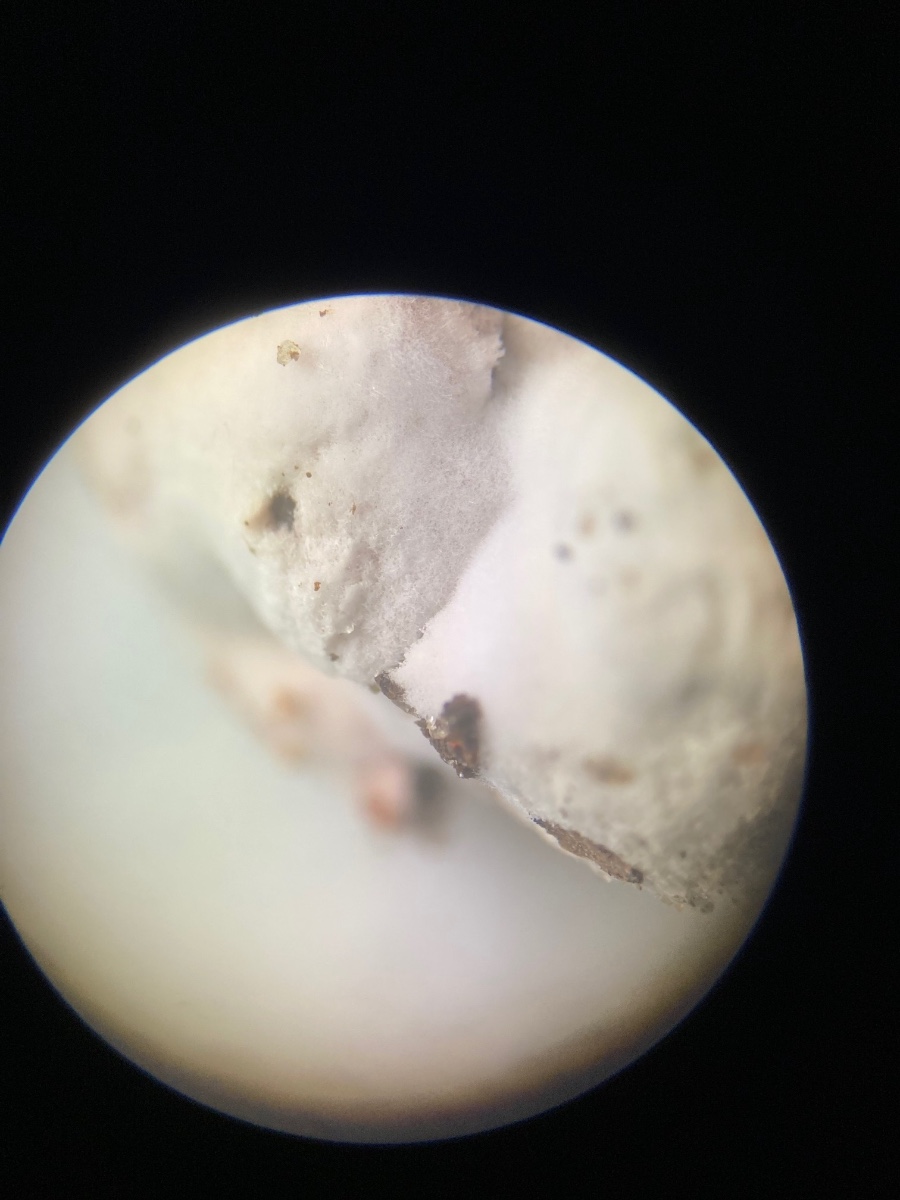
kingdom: Fungi
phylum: Ascomycota
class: Sordariomycetes
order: Hypocreales
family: Hypocreaceae
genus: Hypomyces
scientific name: Hypomyces cervinus
